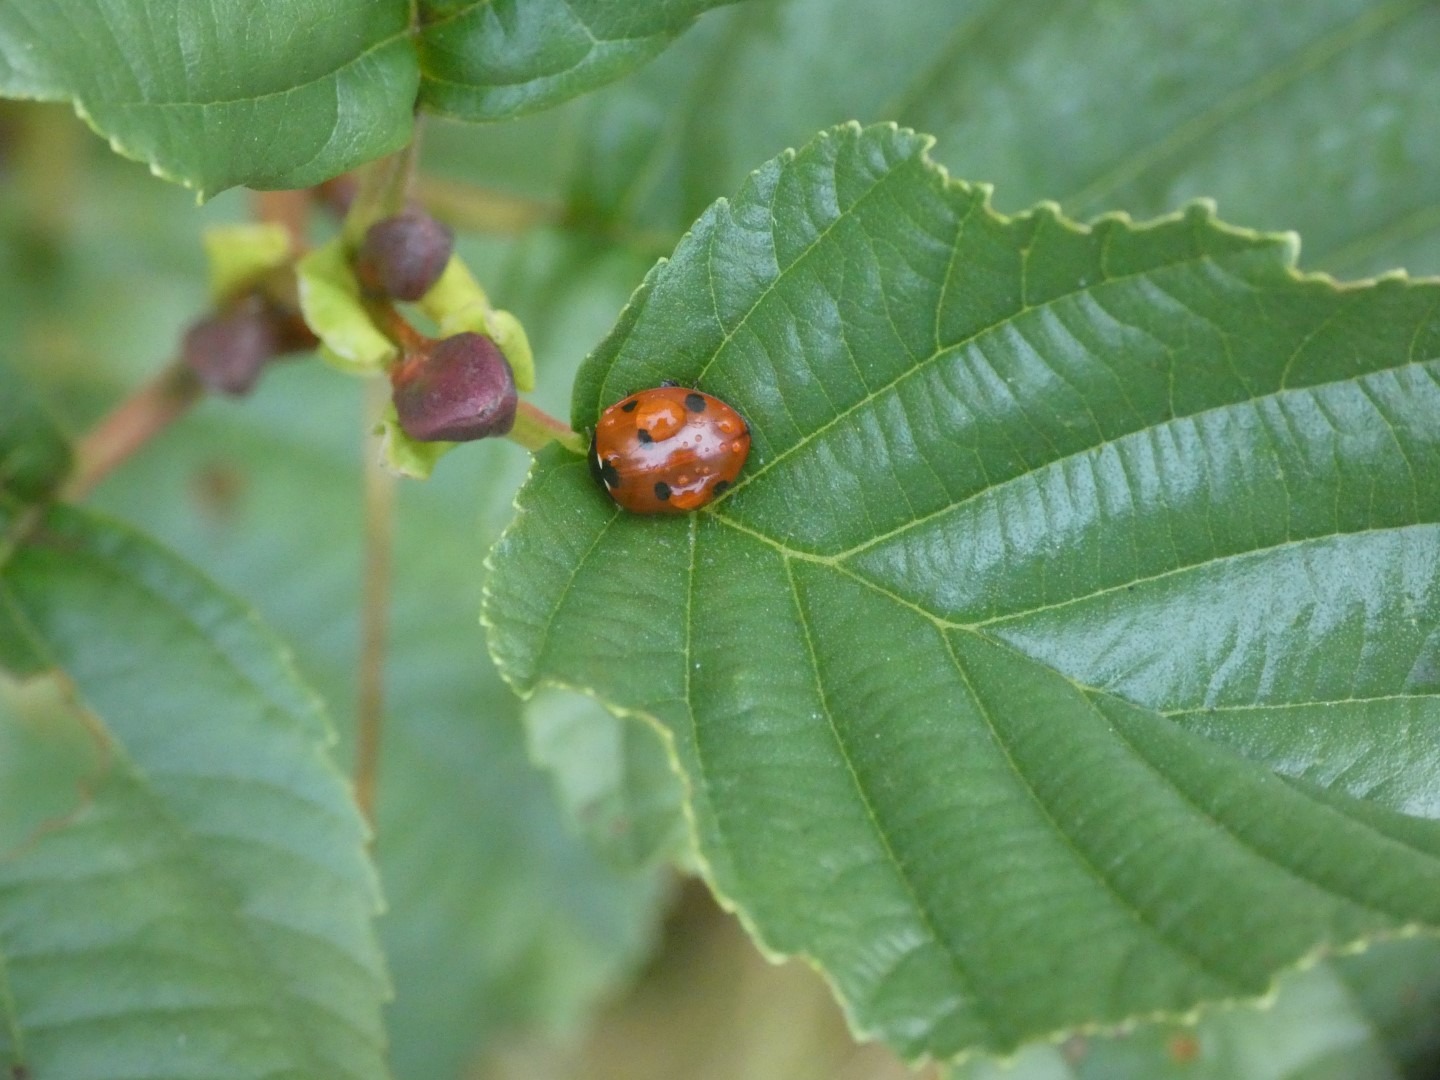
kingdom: Animalia
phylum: Arthropoda
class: Insecta
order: Coleoptera
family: Coccinellidae
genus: Coccinella
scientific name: Coccinella septempunctata
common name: Syvplettet mariehøne
